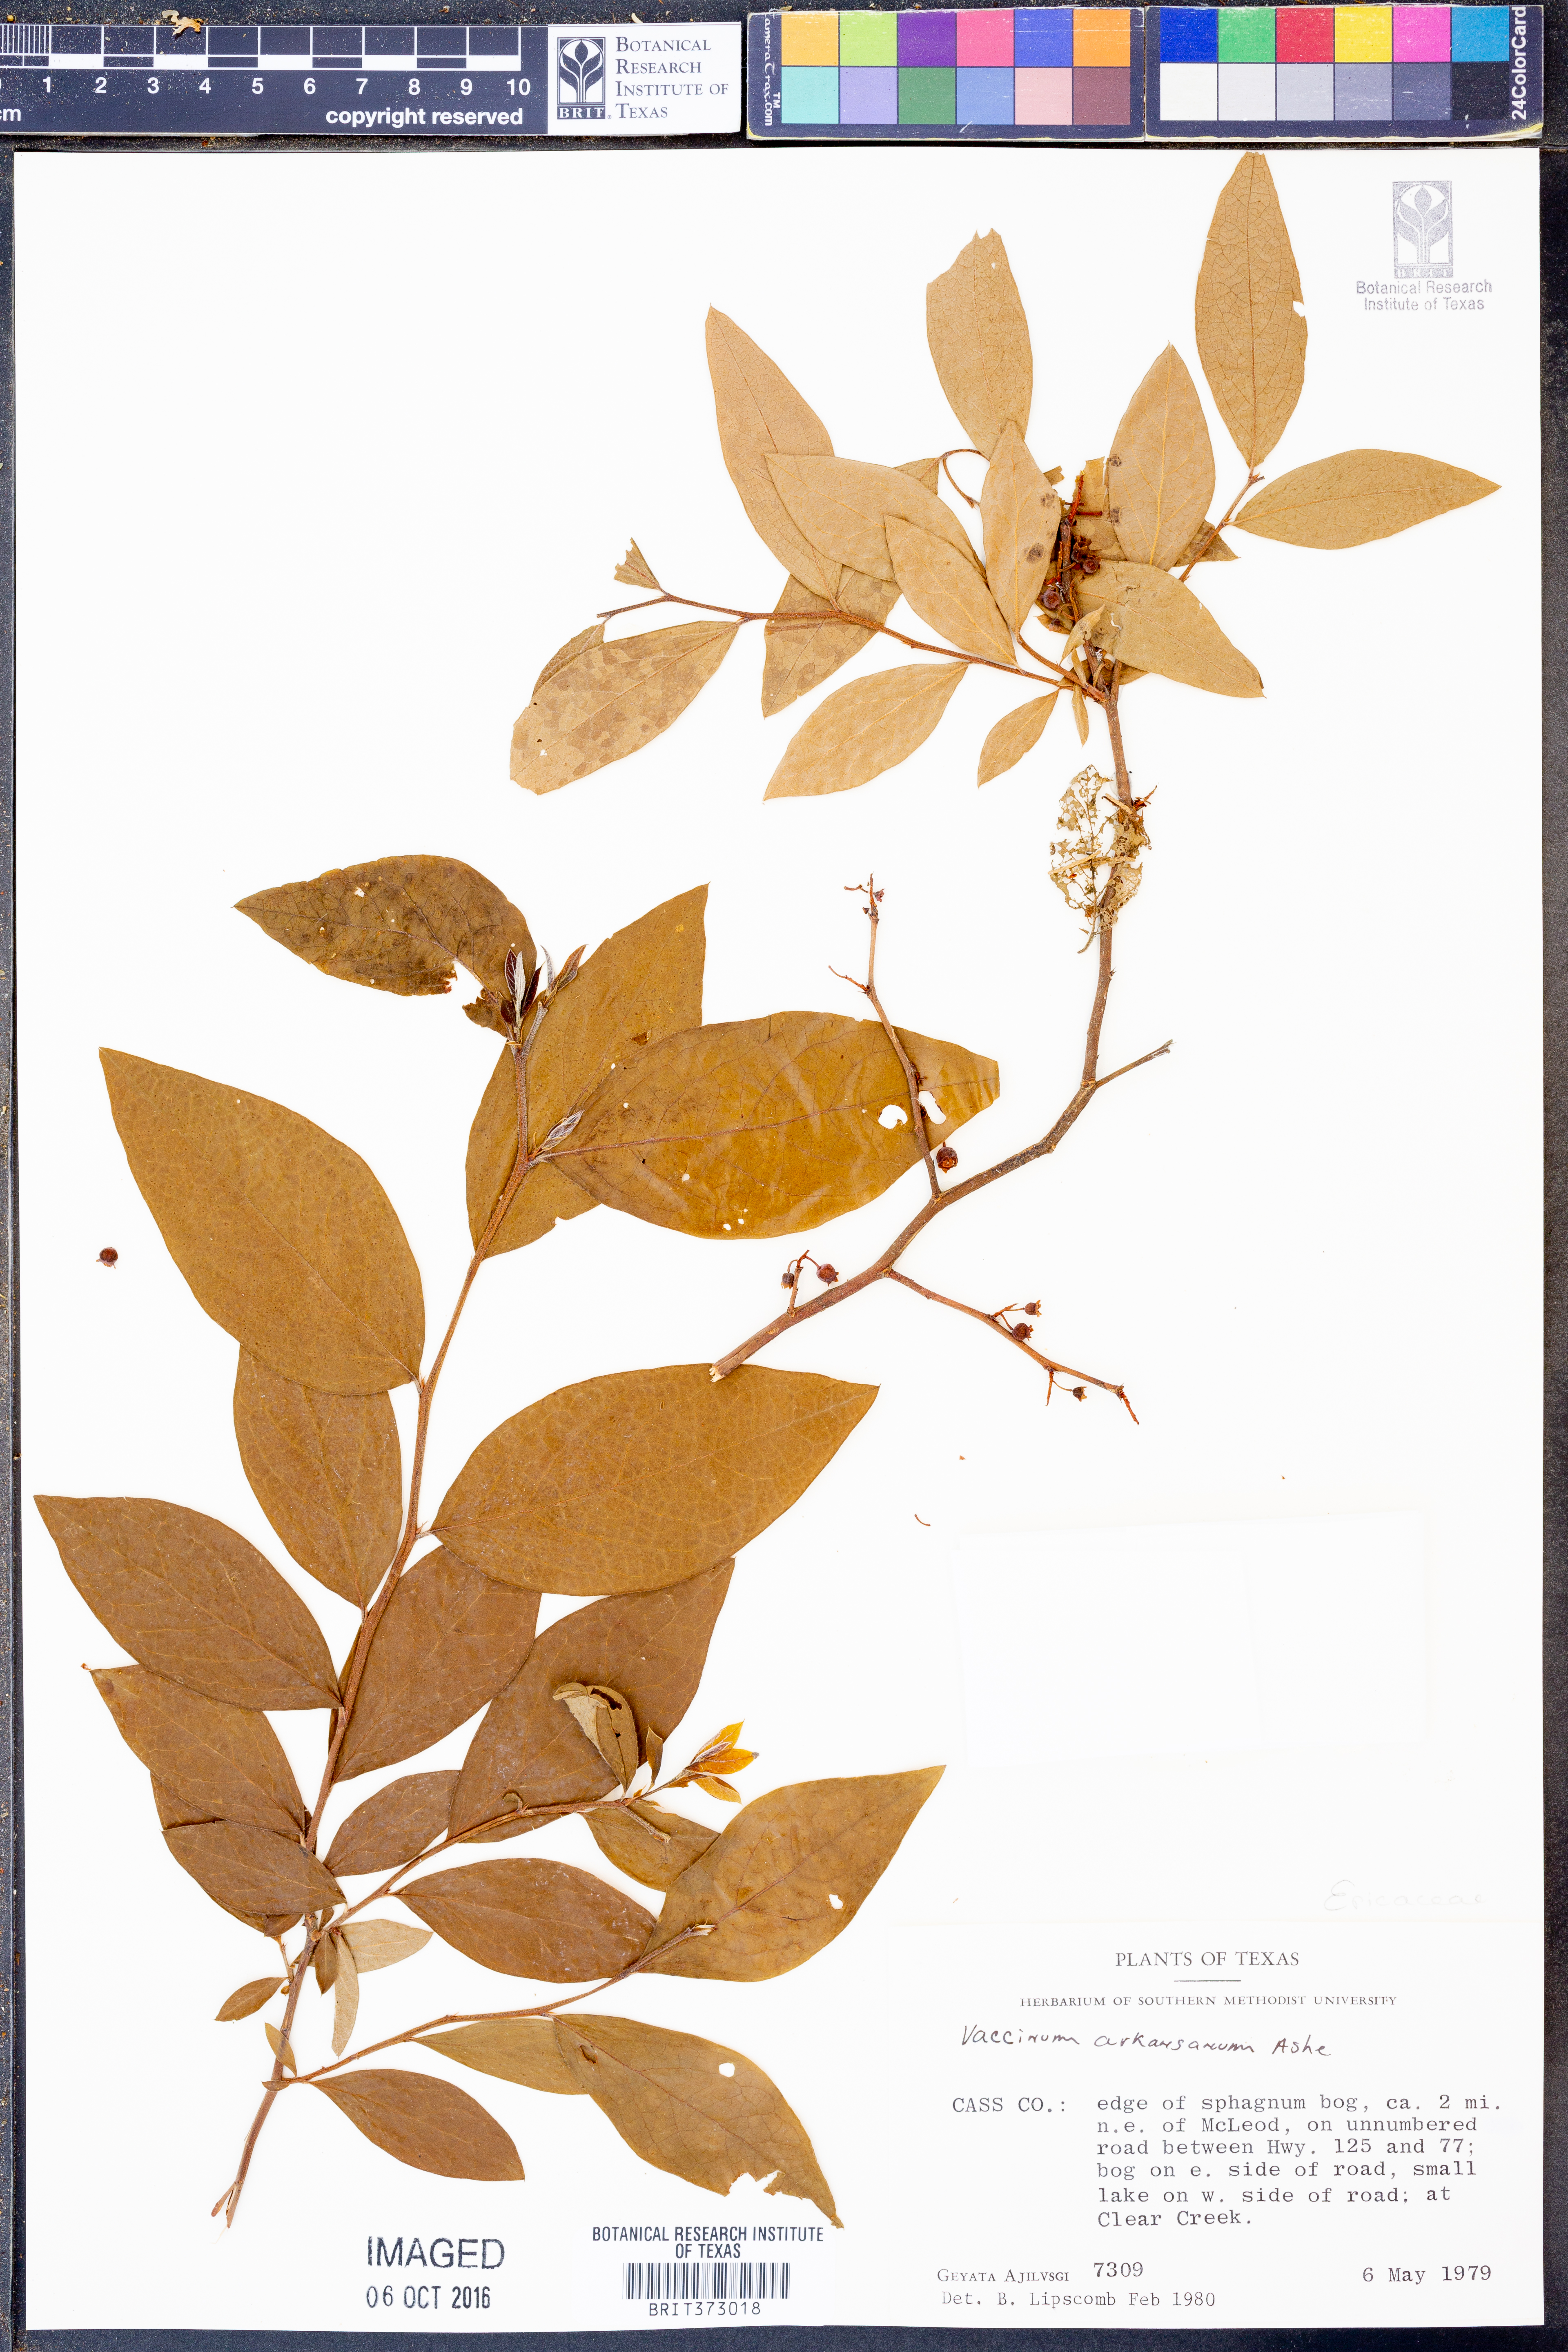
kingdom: Plantae
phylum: Tracheophyta
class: Magnoliopsida
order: Ericales
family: Ericaceae
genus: Vaccinium
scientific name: Vaccinium corymbosum
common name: Blueberry
